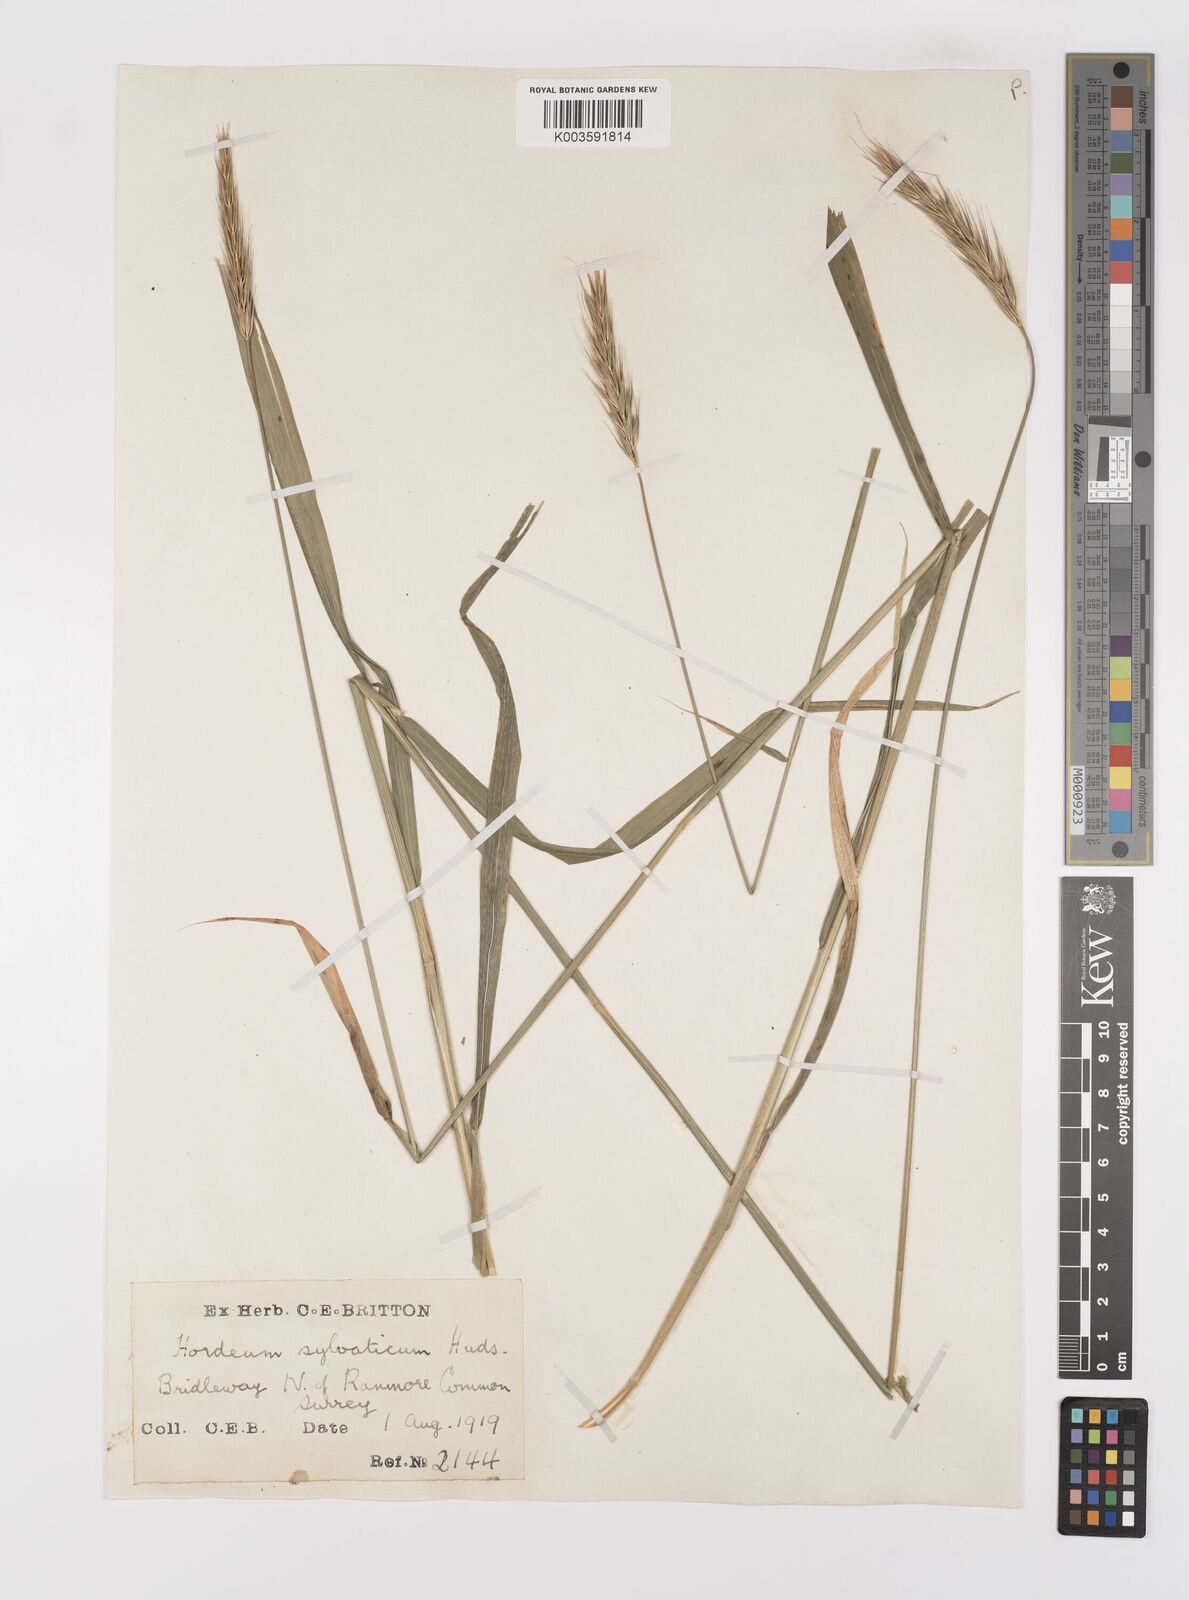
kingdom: Plantae
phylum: Tracheophyta
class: Liliopsida
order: Poales
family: Poaceae
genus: Hordelymus
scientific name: Hordelymus europaeus
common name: Wood-barley
